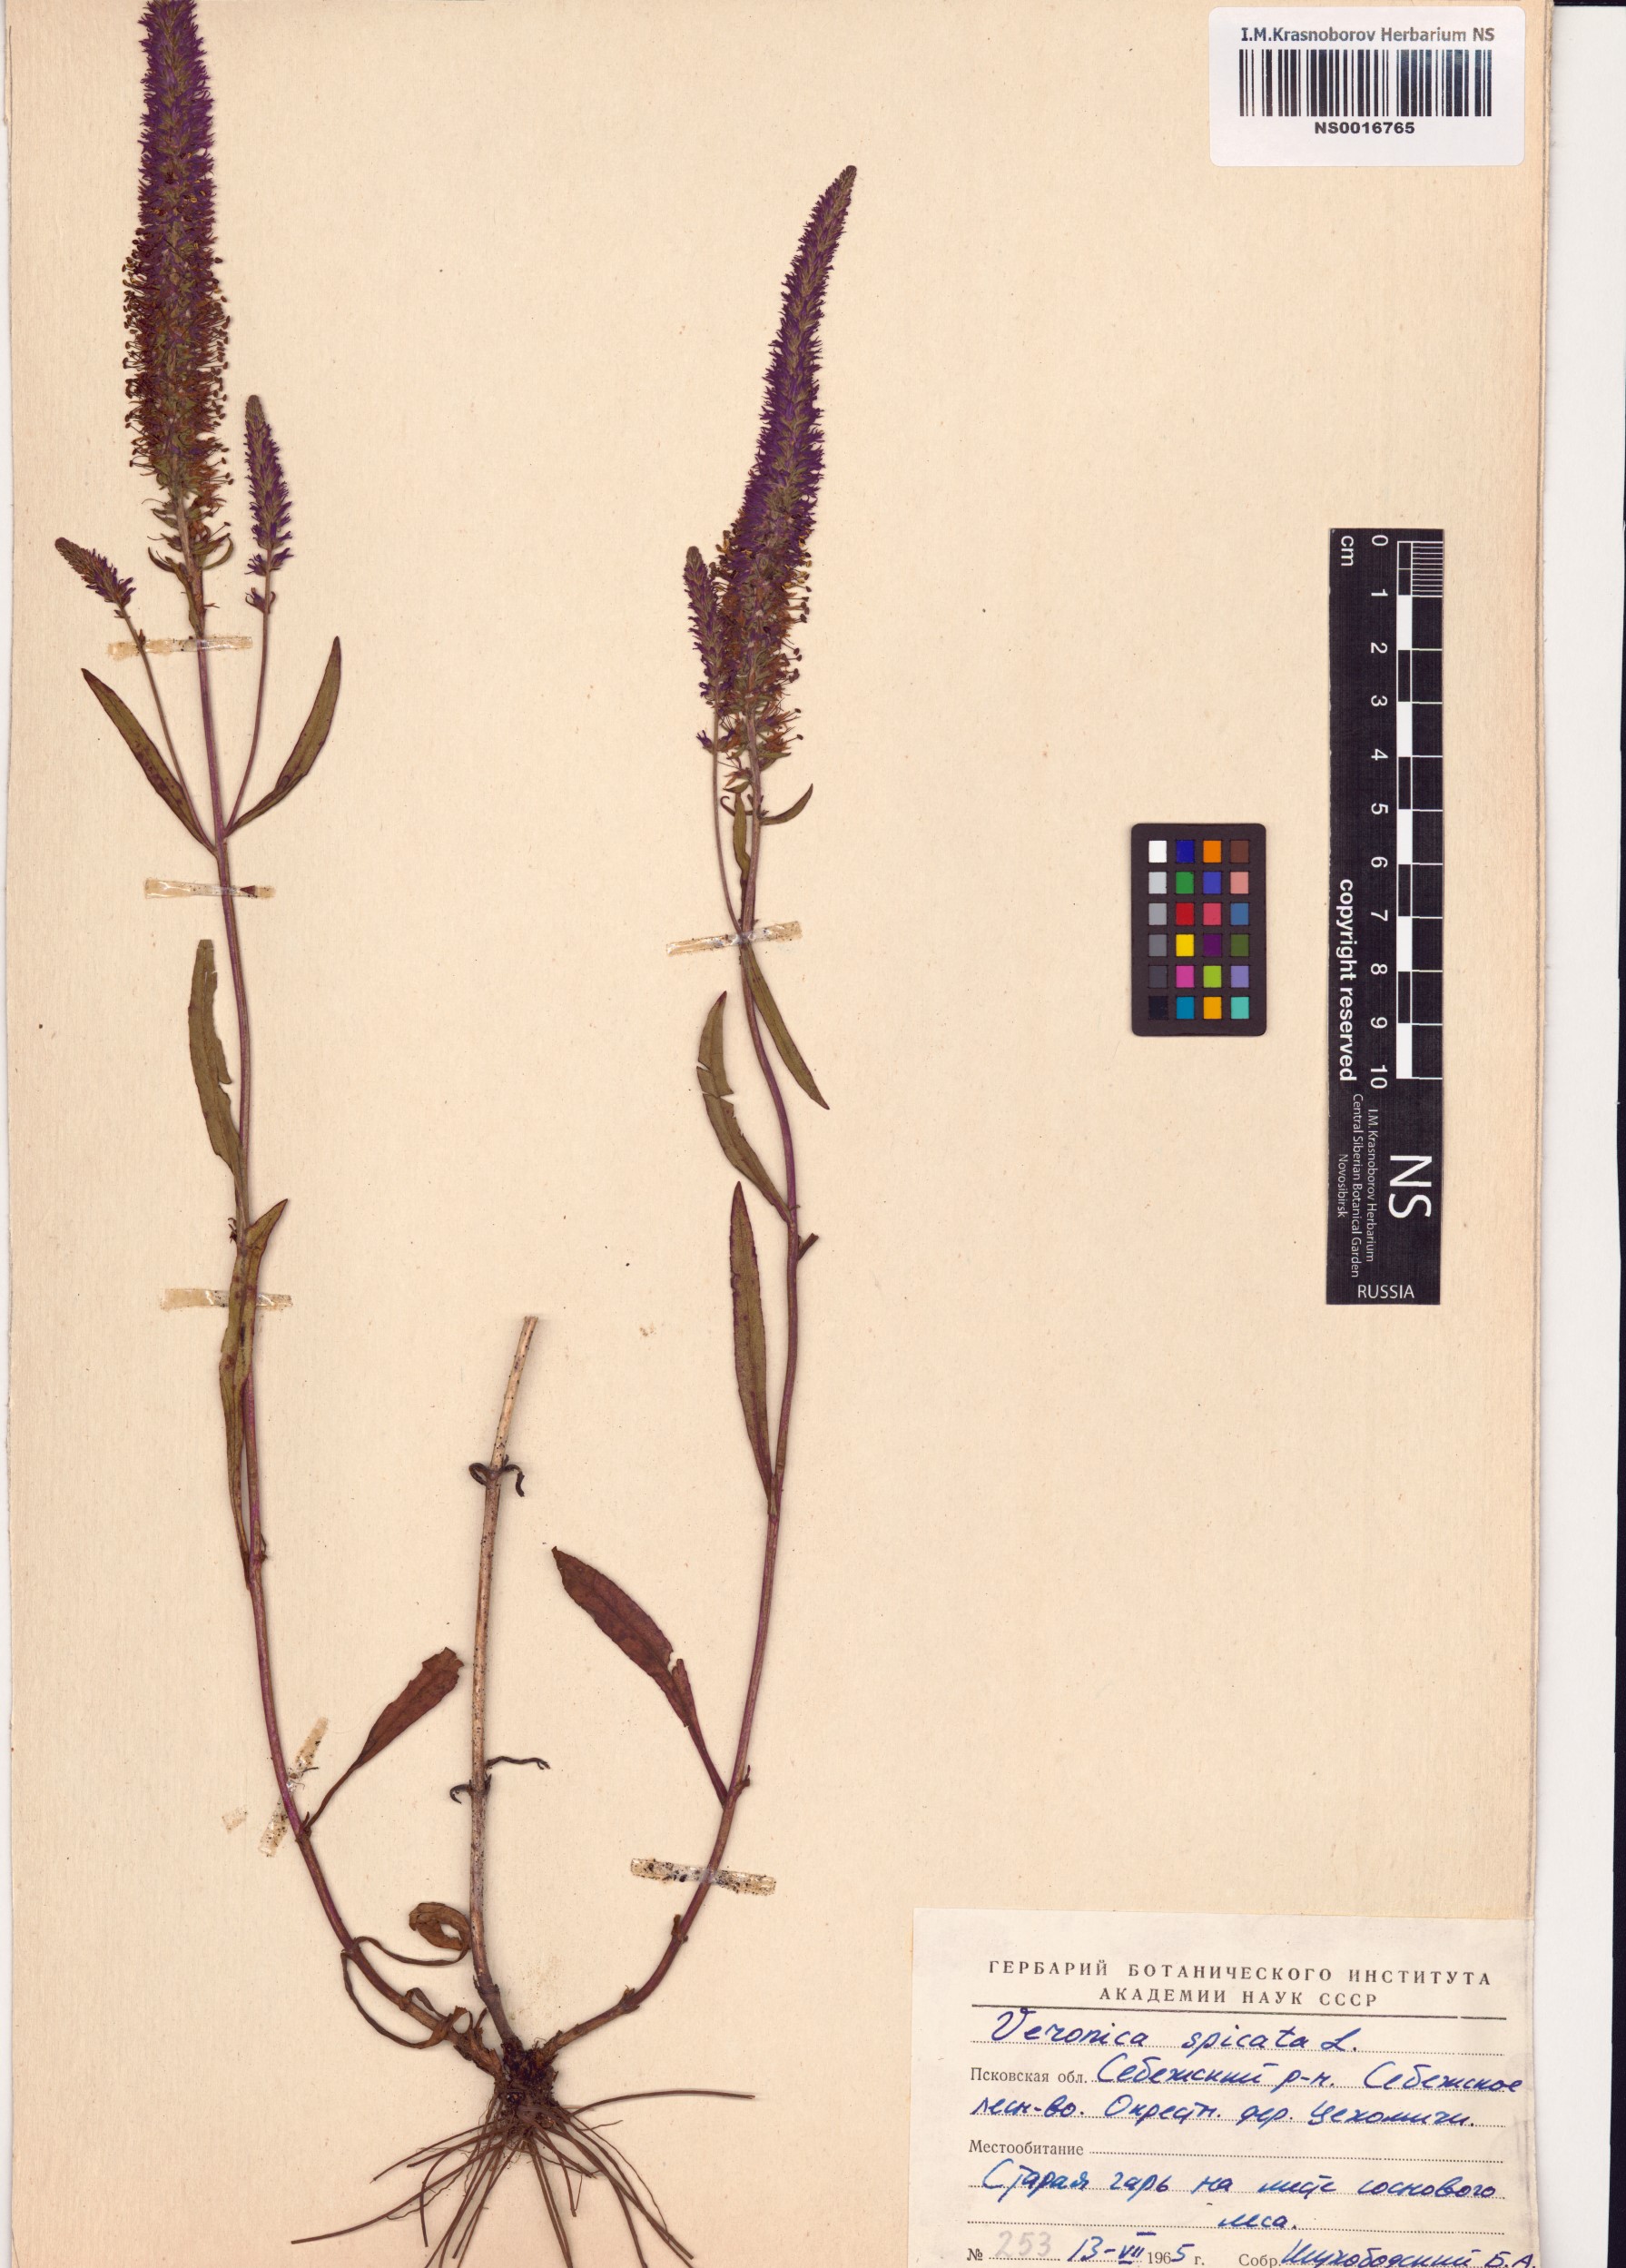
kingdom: Plantae
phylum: Tracheophyta
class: Magnoliopsida
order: Lamiales
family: Plantaginaceae
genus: Veronica
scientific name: Veronica spicata
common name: Spiked speedwell
